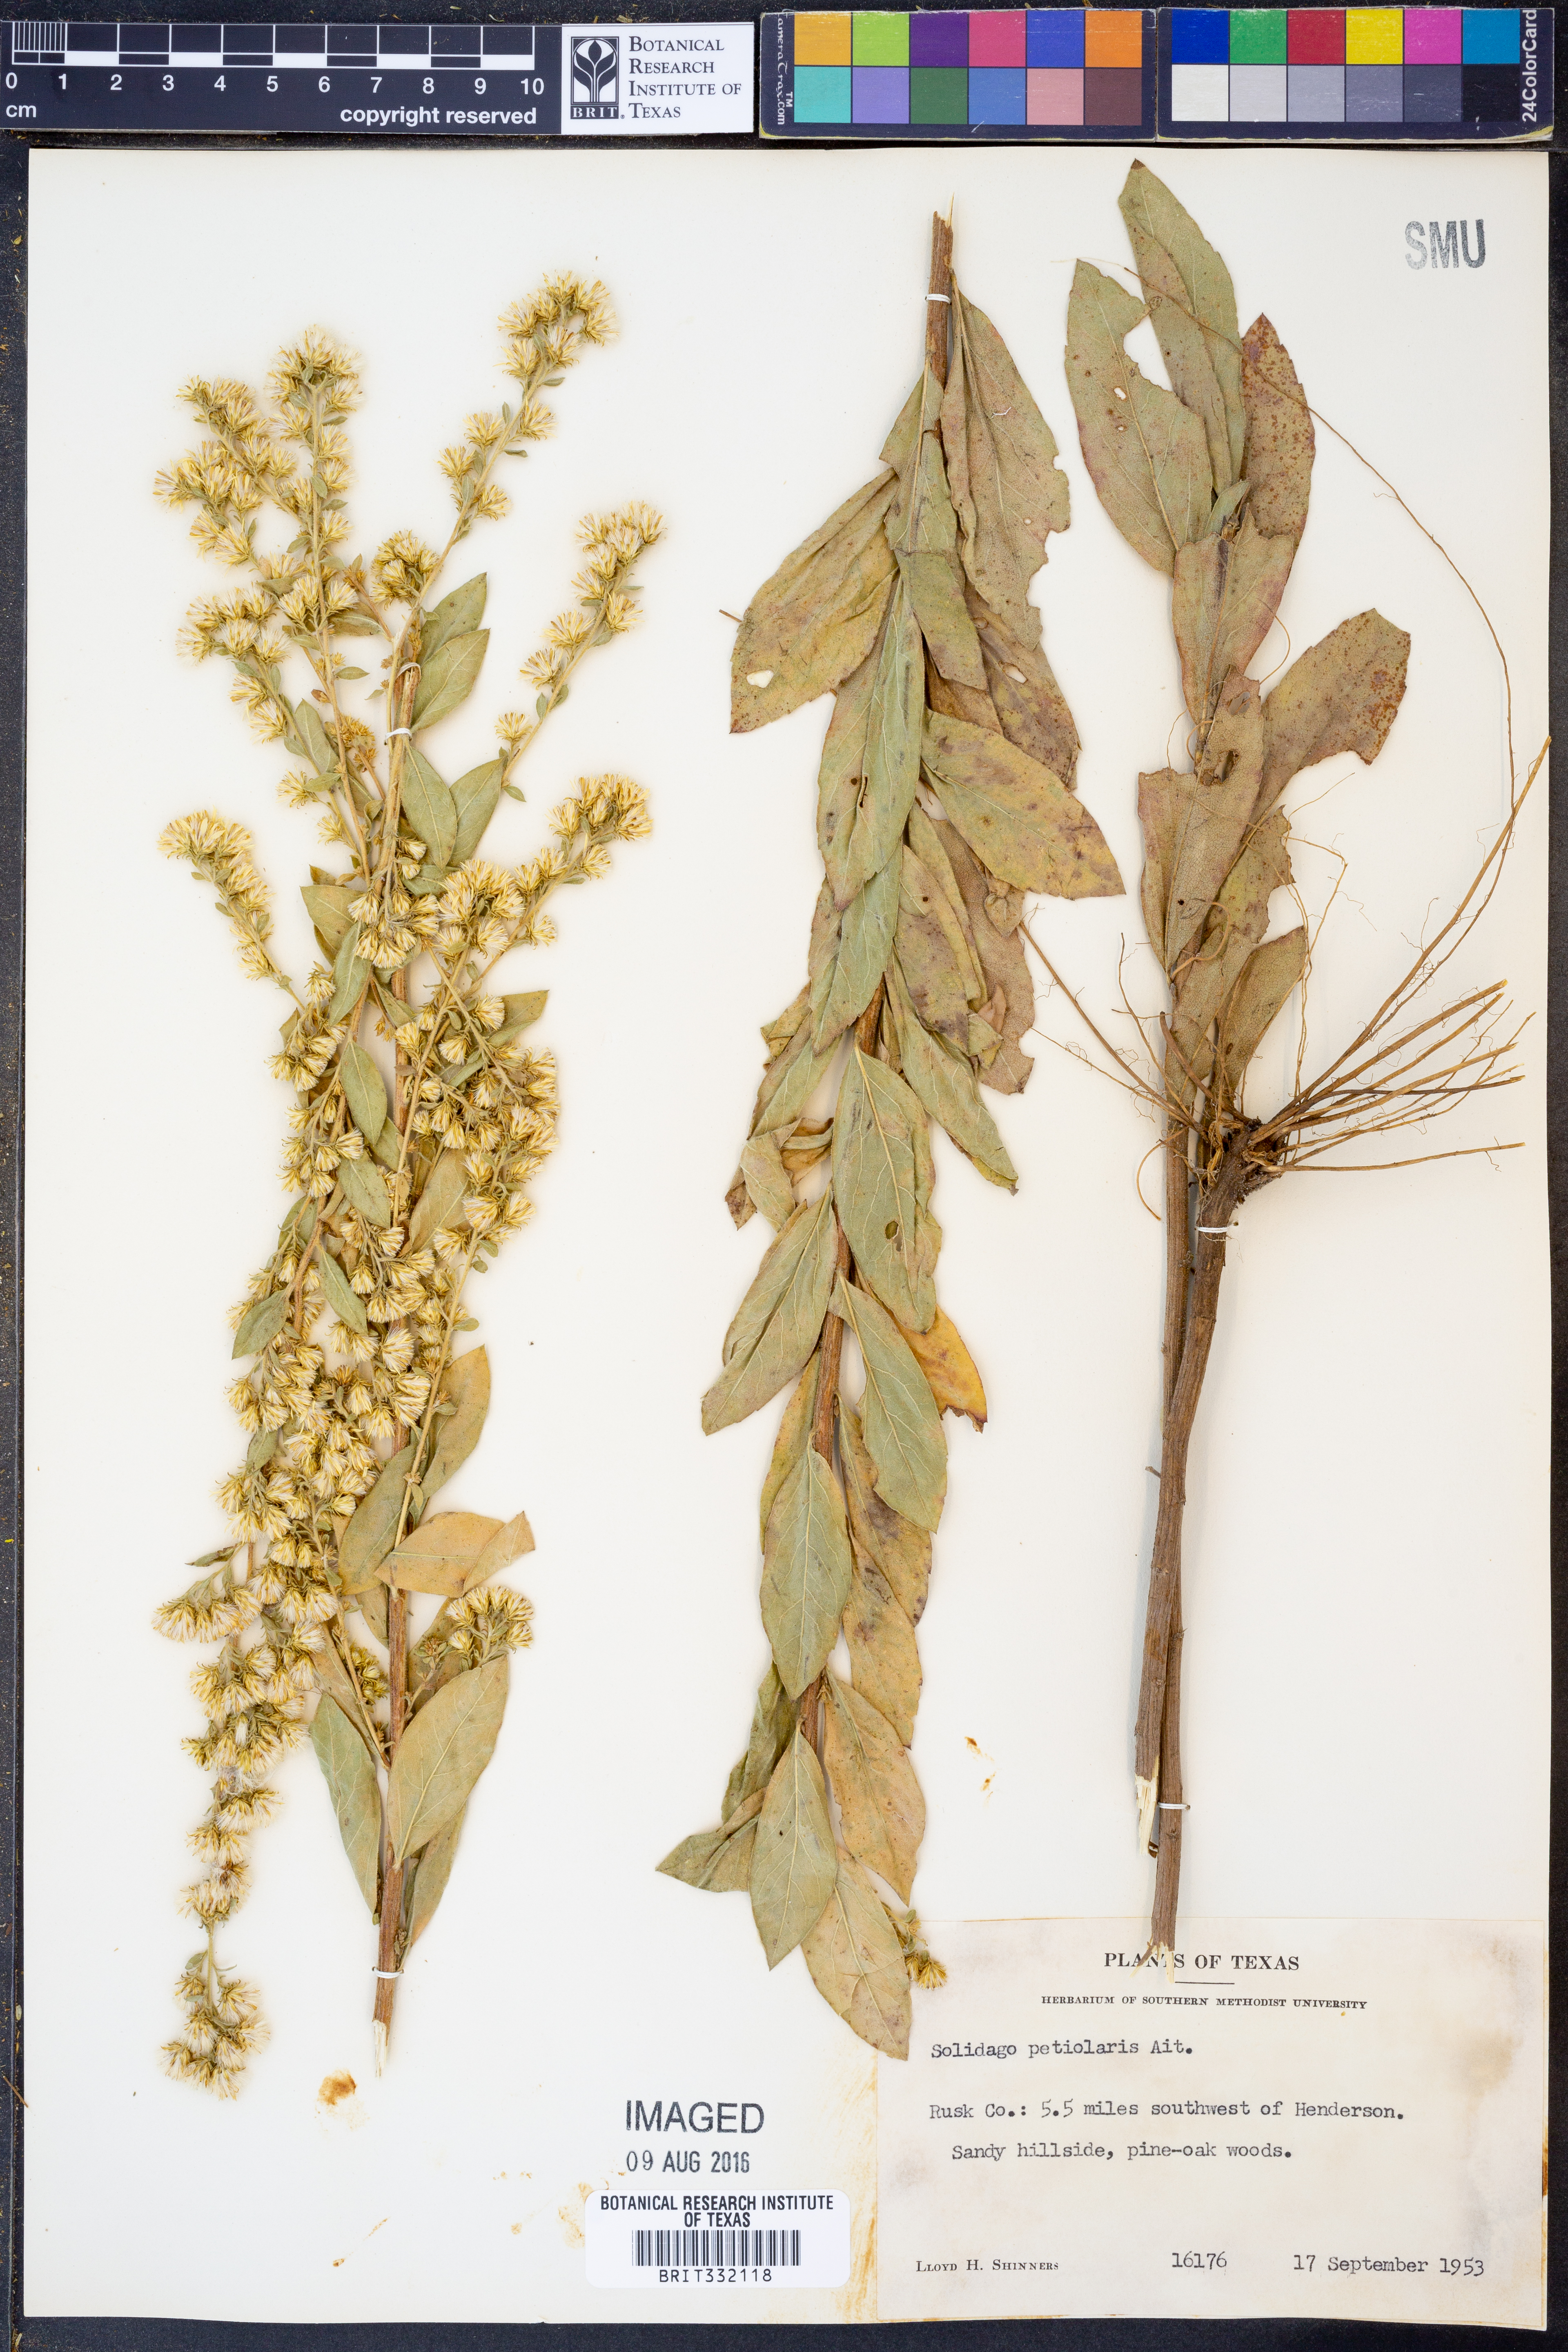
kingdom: Plantae
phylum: Tracheophyta
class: Magnoliopsida
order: Asterales
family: Asteraceae
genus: Solidago
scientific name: Solidago petiolaris
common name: Downy ragged goldenrod
